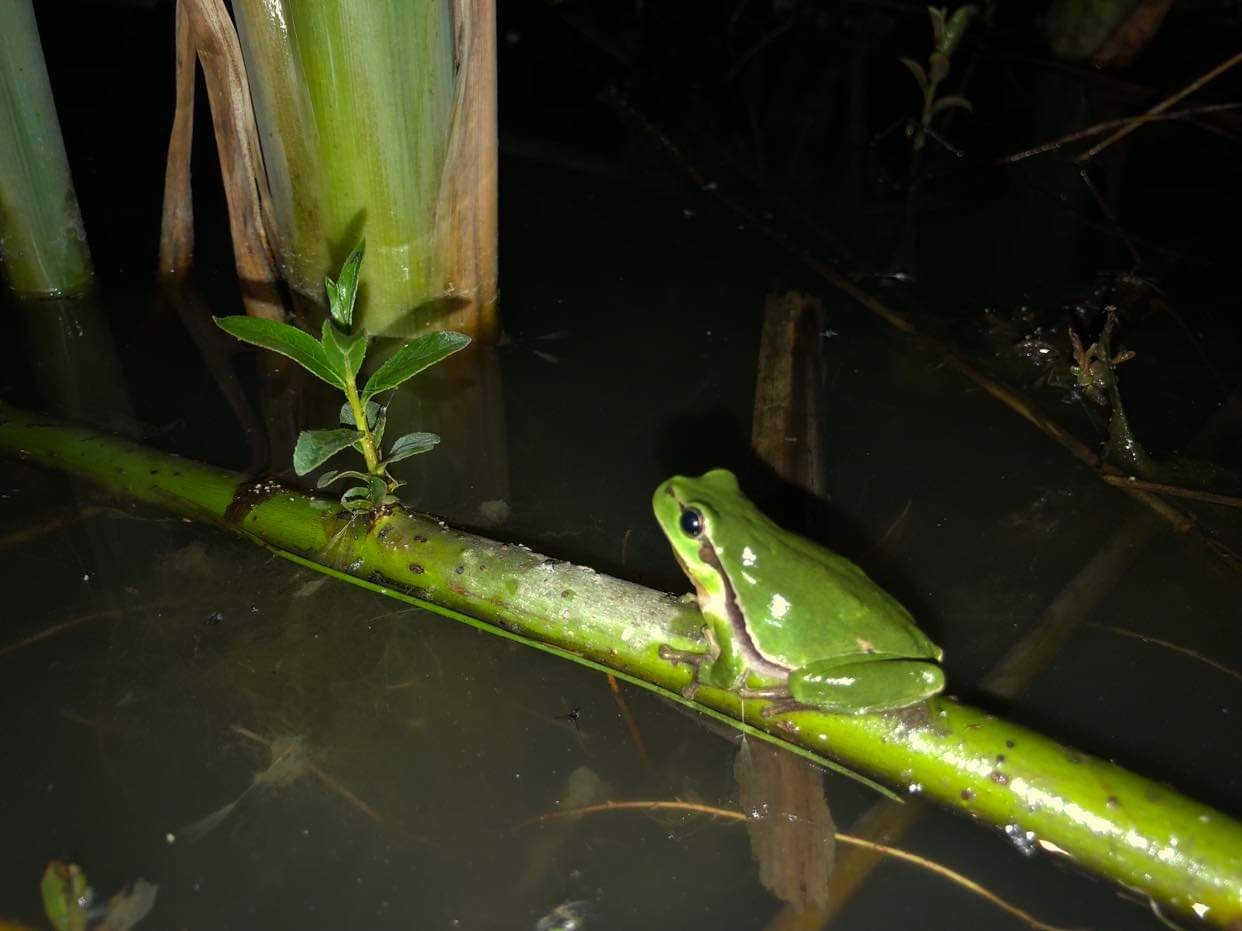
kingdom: Animalia
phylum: Chordata
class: Amphibia
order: Anura
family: Hylidae
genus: Hyla
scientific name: Hyla arborea
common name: Løvfrø
